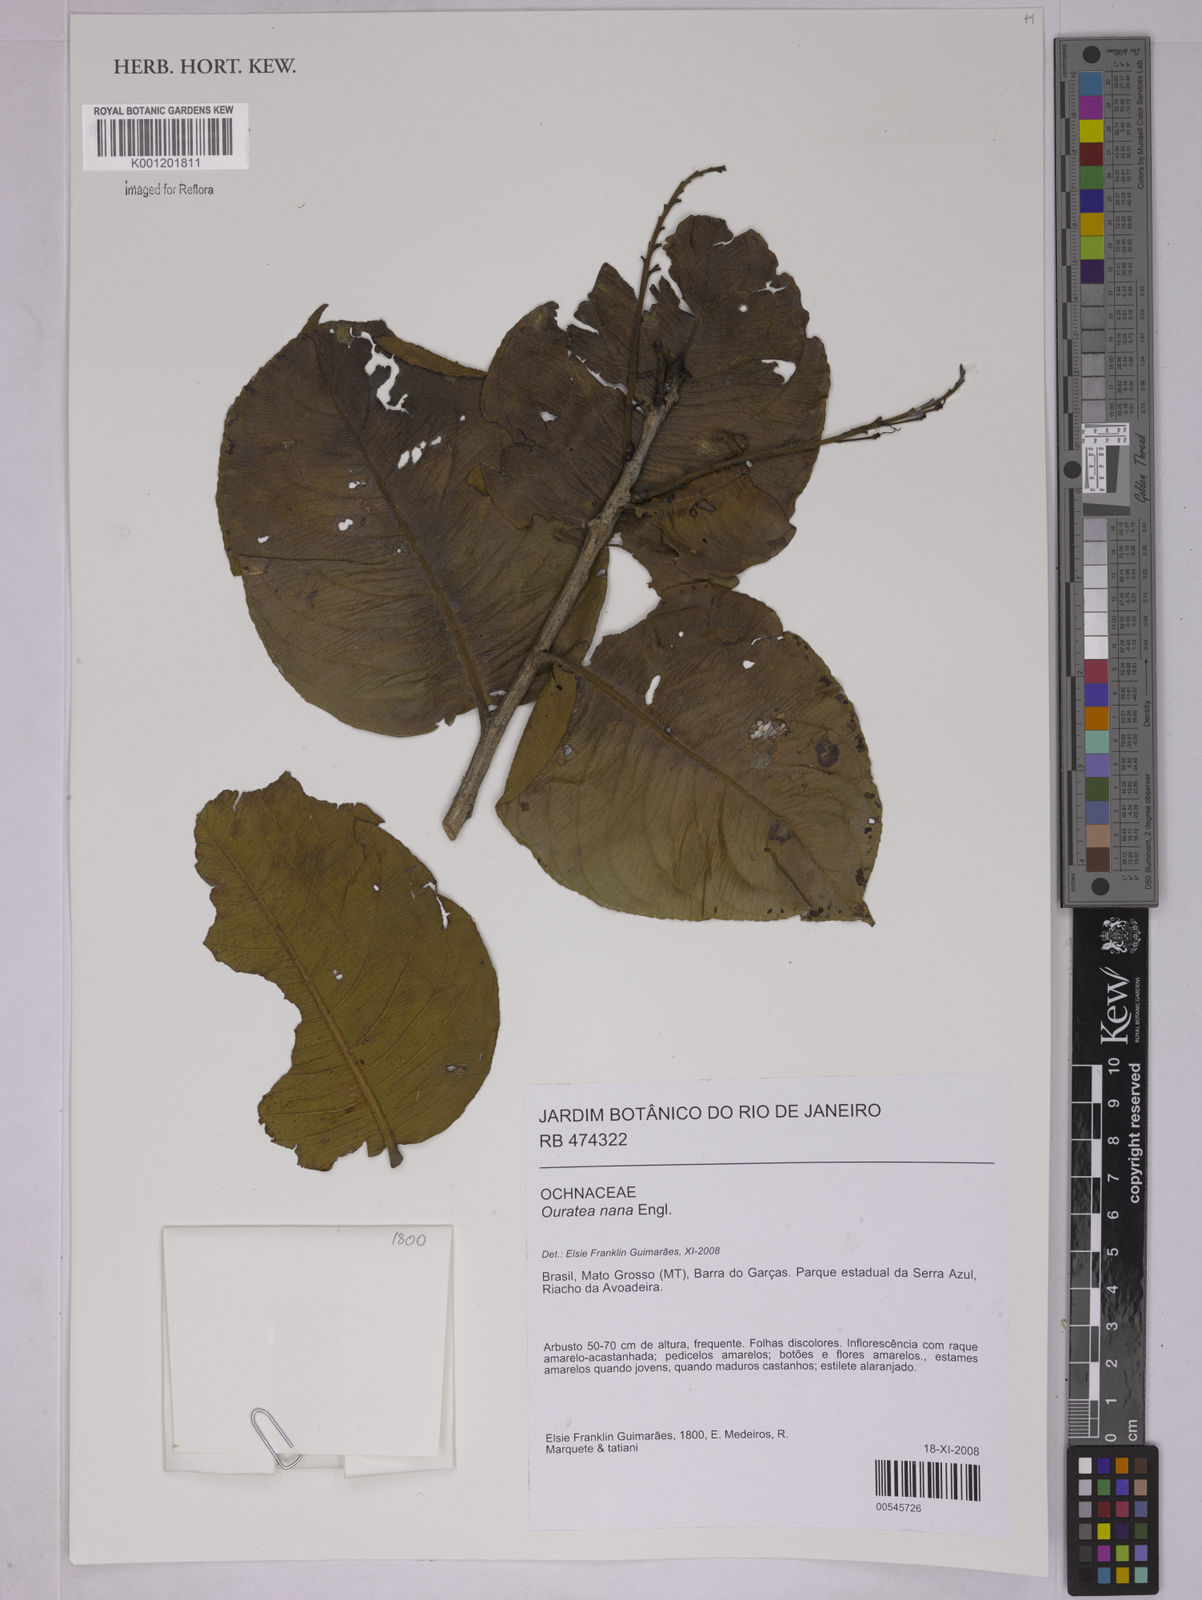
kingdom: Plantae
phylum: Tracheophyta
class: Magnoliopsida
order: Malpighiales
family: Ochnaceae
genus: Ouratea
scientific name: Ouratea nana
